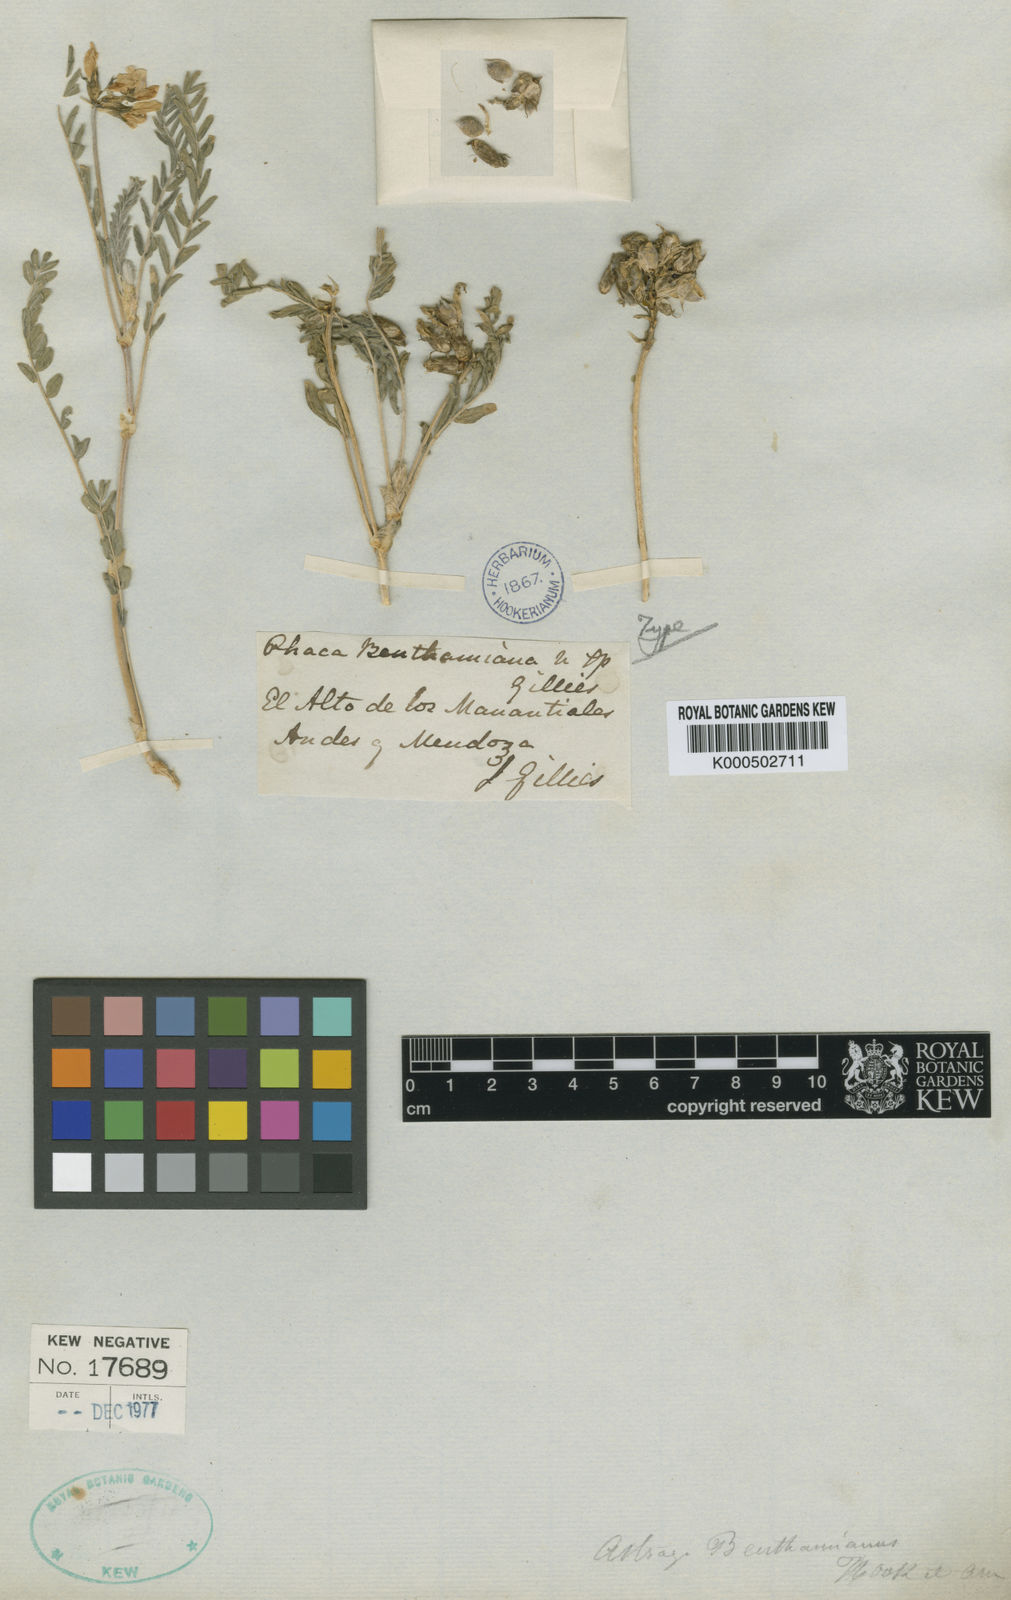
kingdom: Plantae
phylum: Tracheophyta
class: Magnoliopsida
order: Fabales
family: Fabaceae
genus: Astragalus
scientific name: Astragalus
